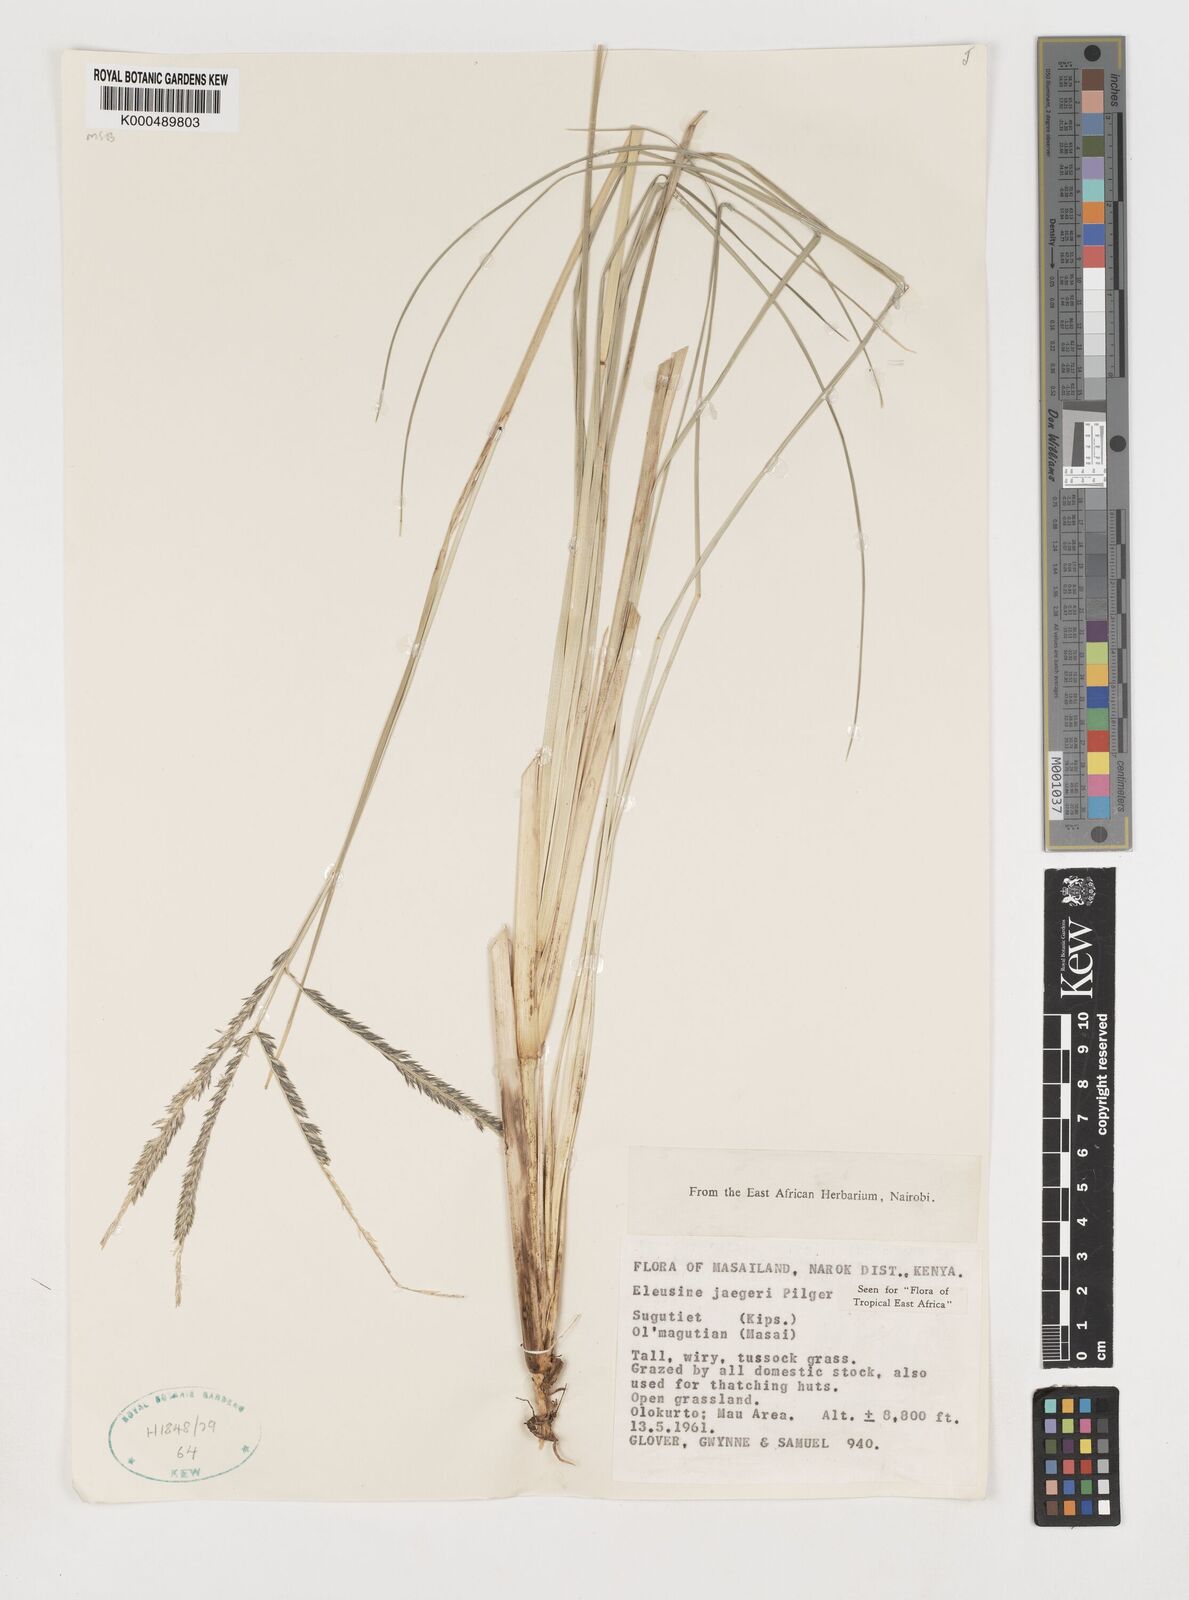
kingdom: Plantae
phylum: Tracheophyta
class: Liliopsida
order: Poales
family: Poaceae
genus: Eleusine
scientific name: Eleusine jaegeri
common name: Manyatta grass
